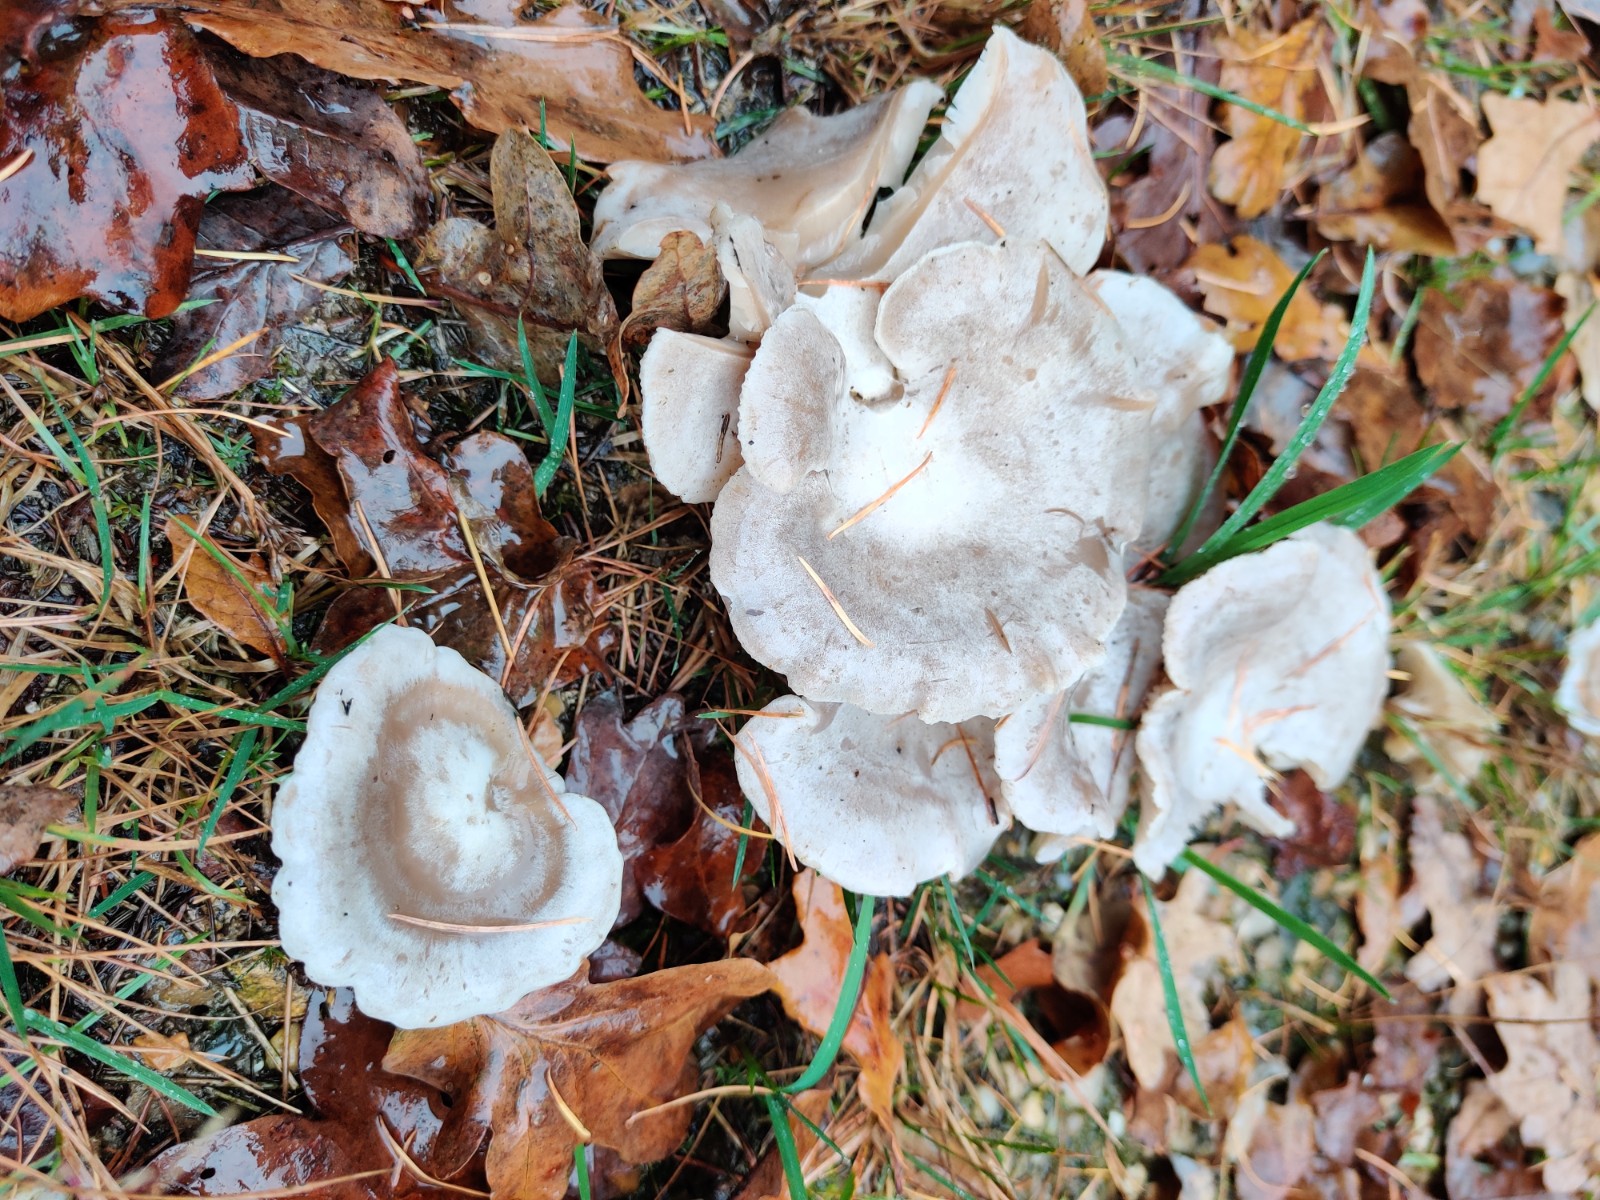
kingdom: Fungi
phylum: Basidiomycota
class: Agaricomycetes
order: Agaricales
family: Tricholomataceae
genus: Clitocybe
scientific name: Clitocybe
